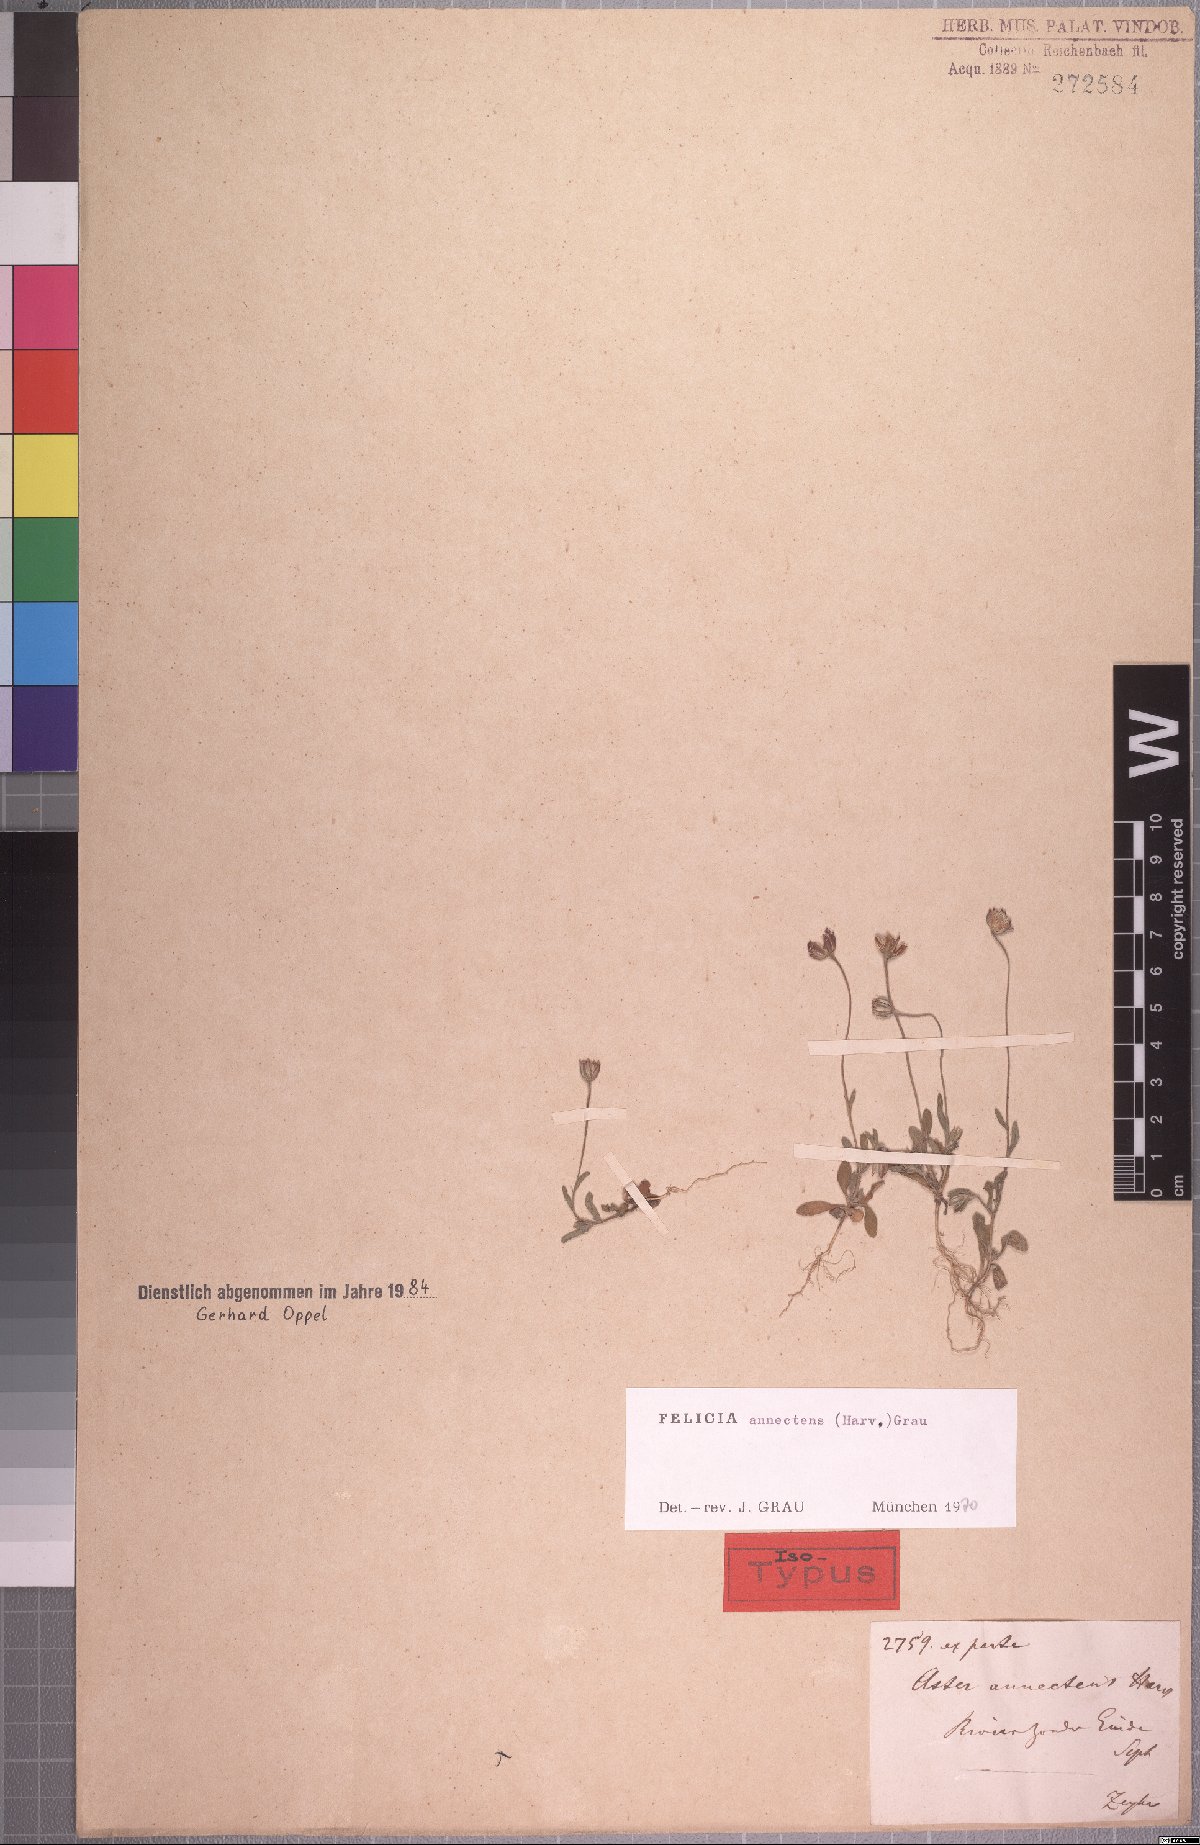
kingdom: Plantae
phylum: Tracheophyta
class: Magnoliopsida
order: Asterales
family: Asteraceae
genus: Felicia
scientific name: Felicia annectens
